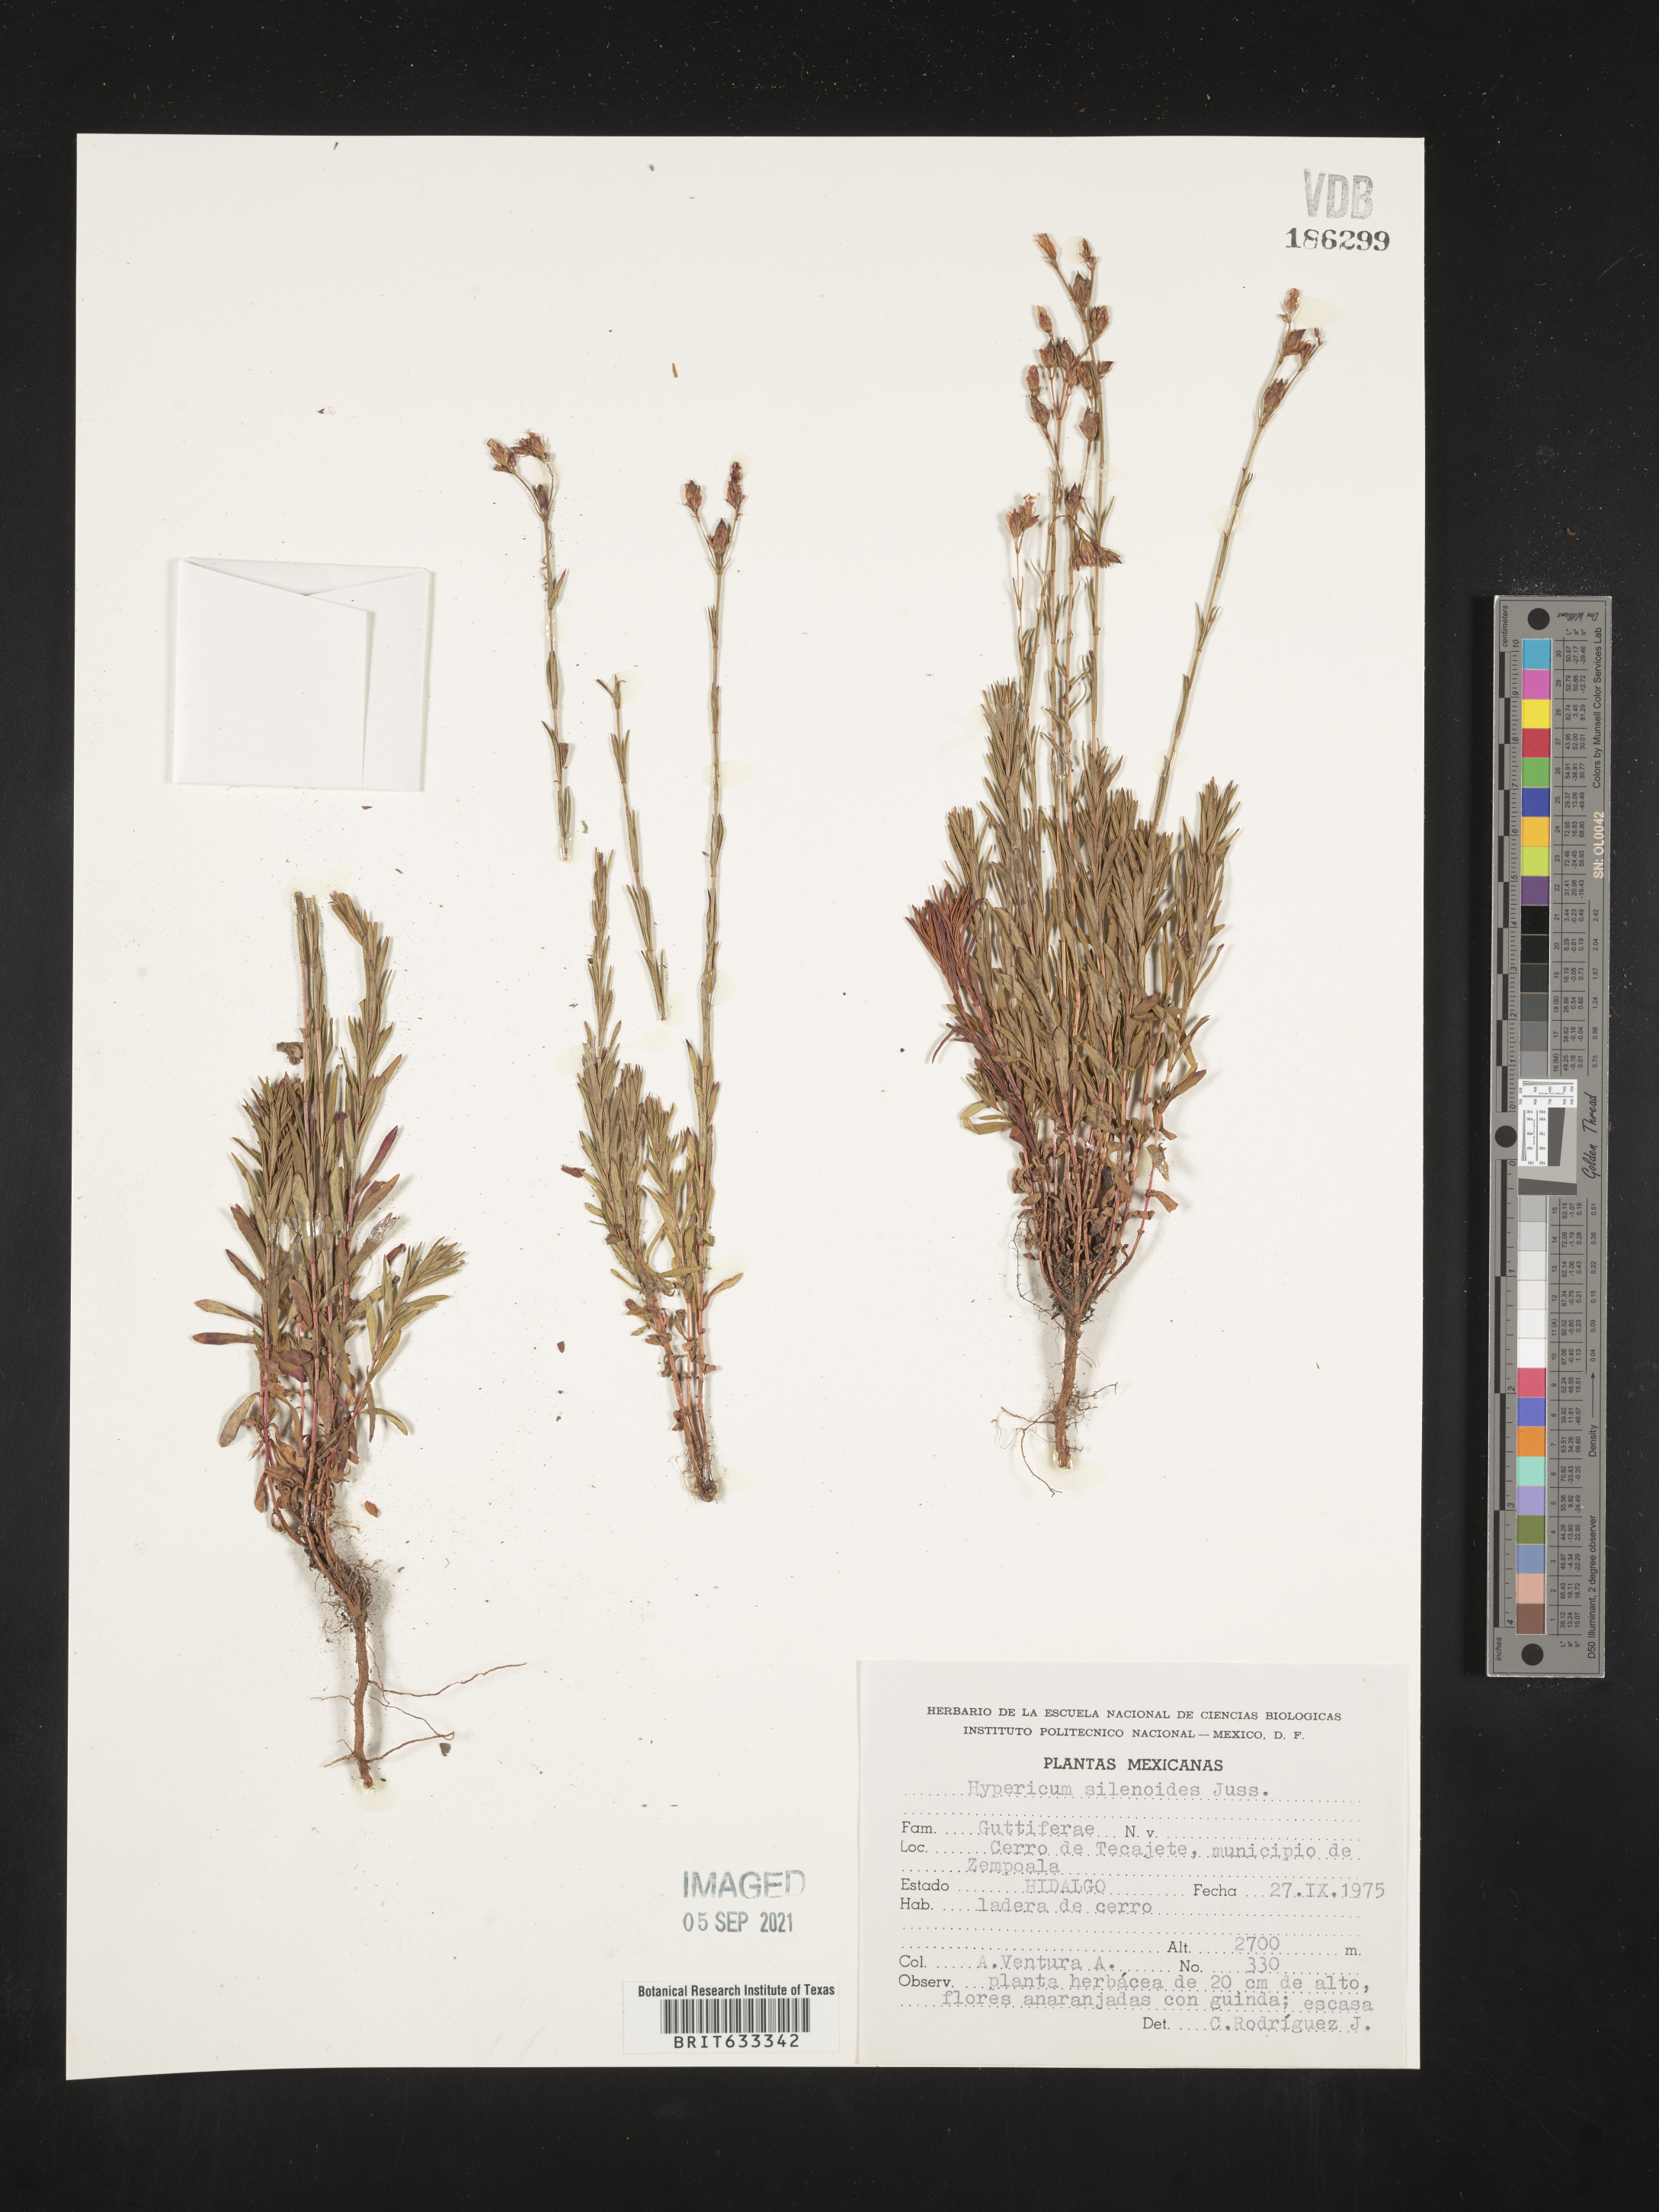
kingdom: Plantae
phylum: Tracheophyta
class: Magnoliopsida
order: Malpighiales
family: Hypericaceae
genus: Hypericum
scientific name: Hypericum
